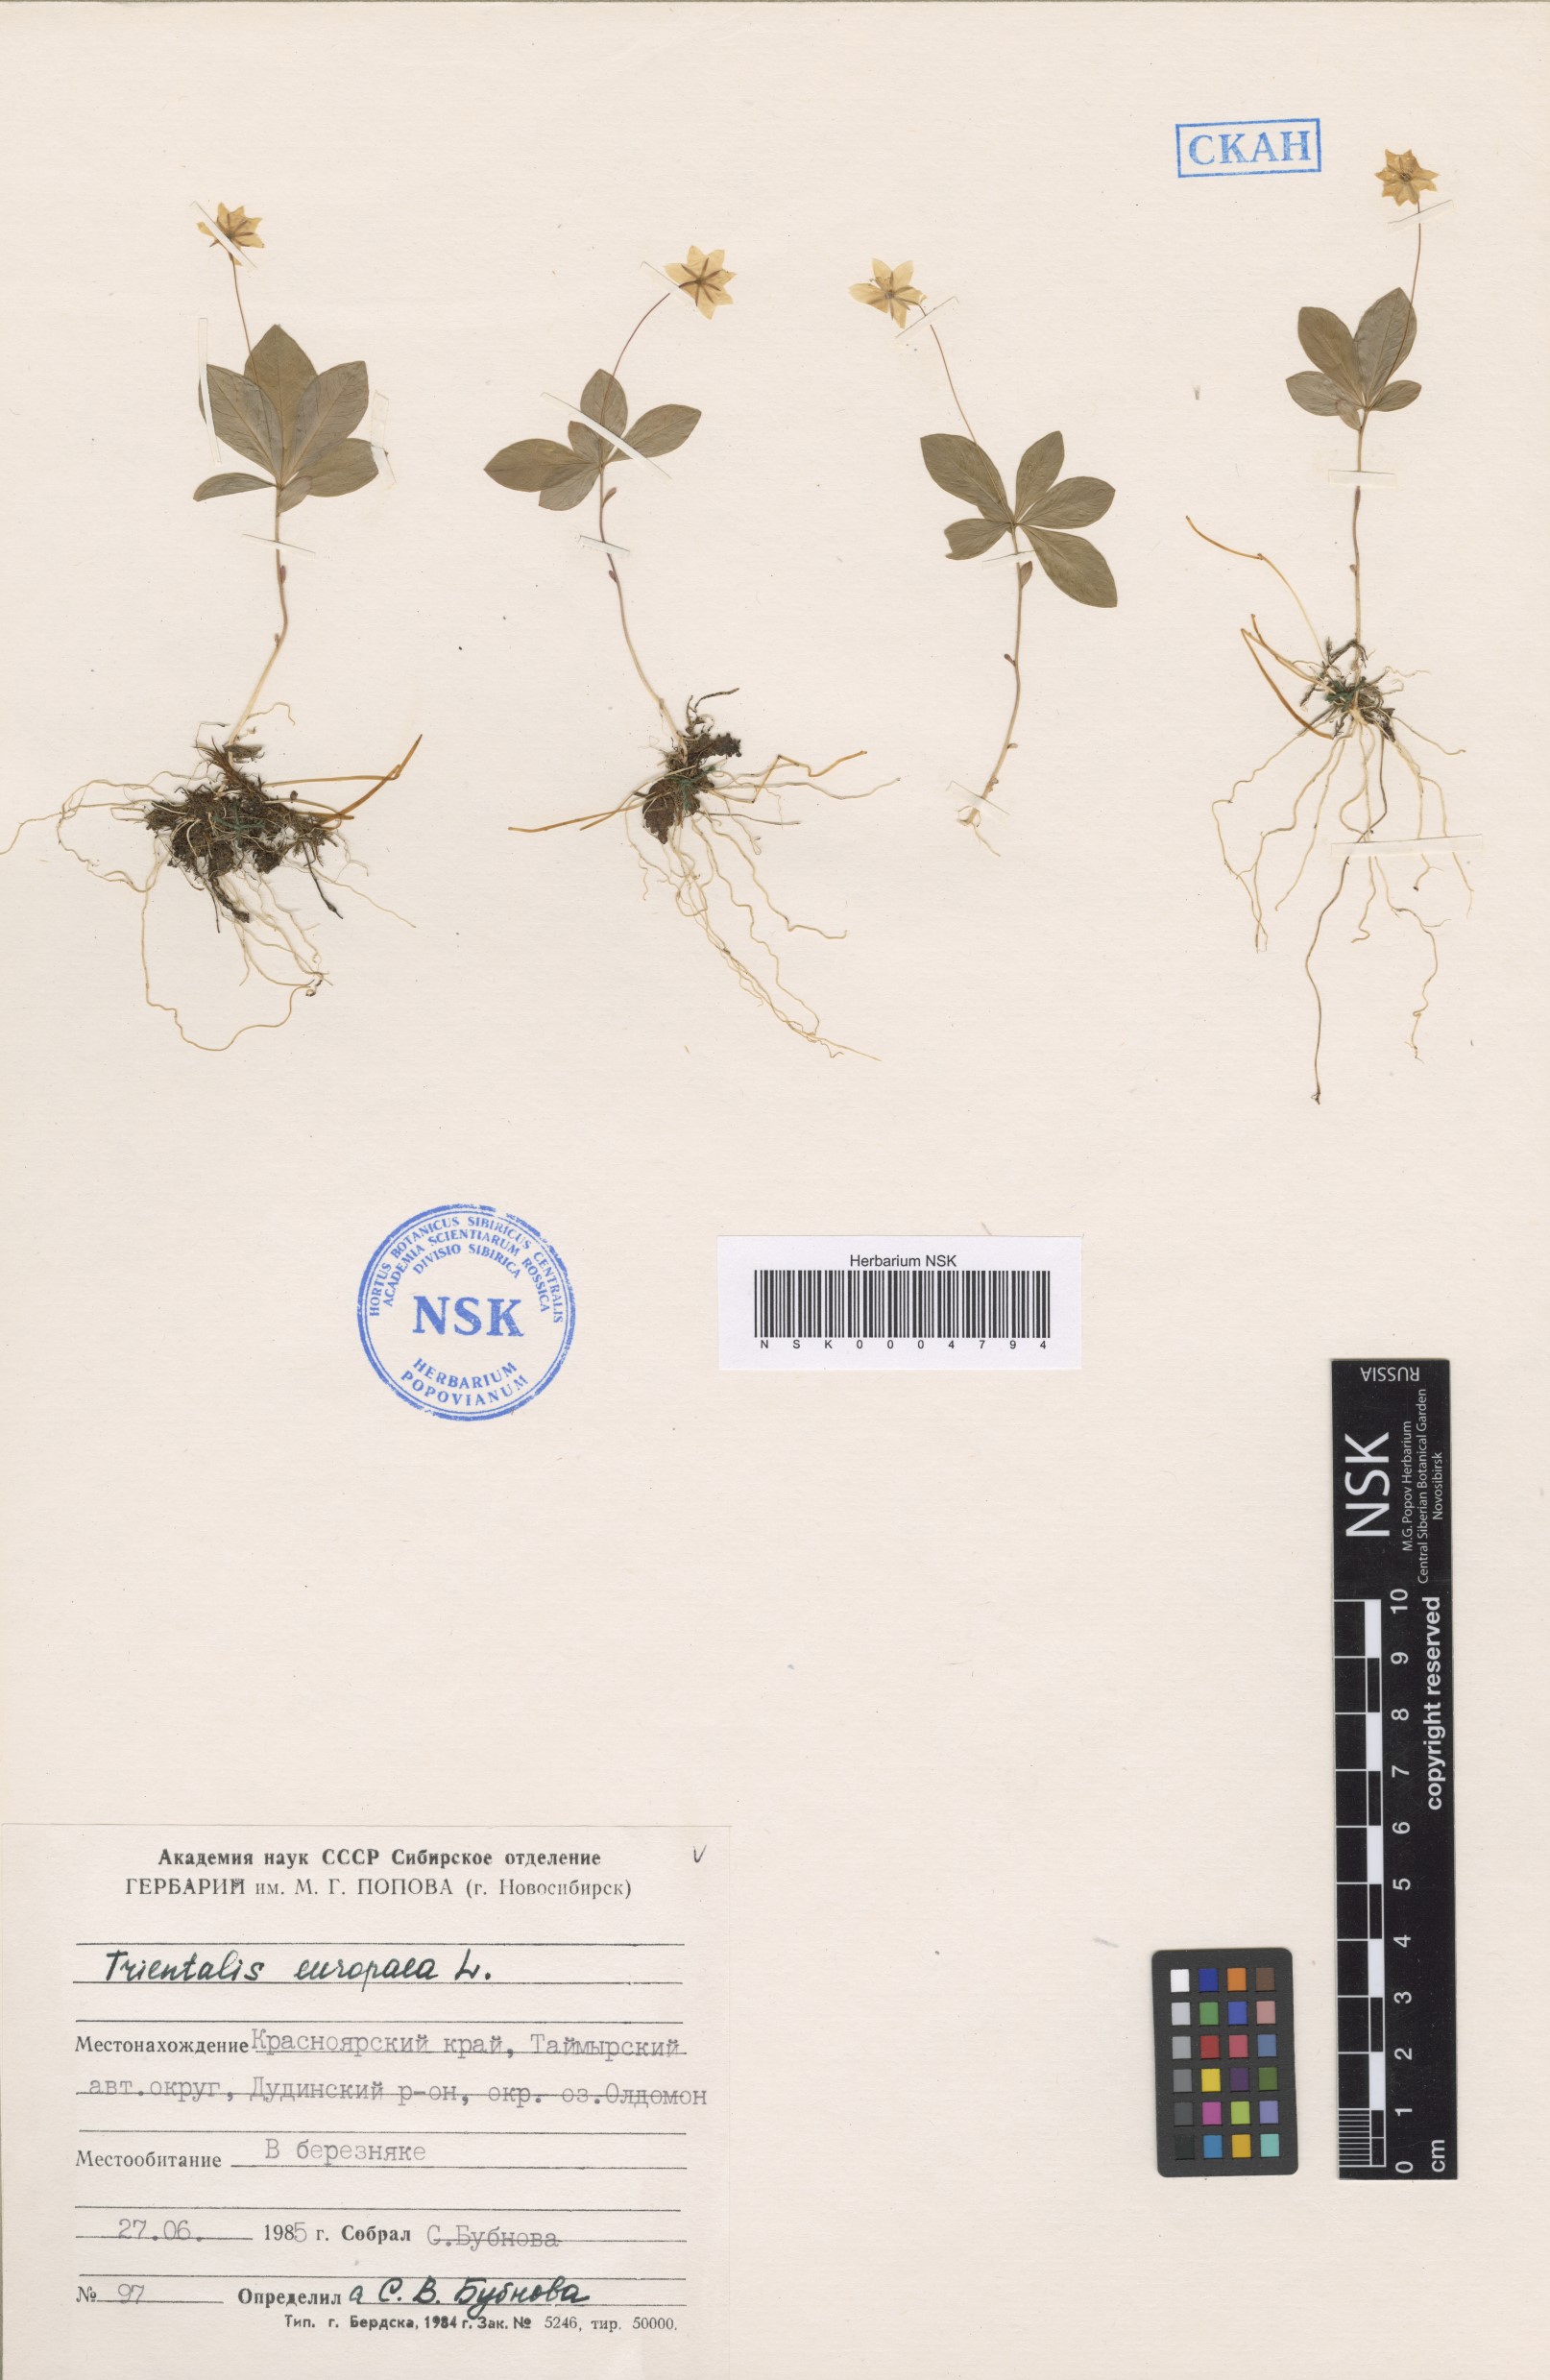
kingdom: Plantae
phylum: Tracheophyta
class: Magnoliopsida
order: Ericales
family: Primulaceae
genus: Lysimachia
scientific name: Lysimachia europaea
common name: Arctic starflower
